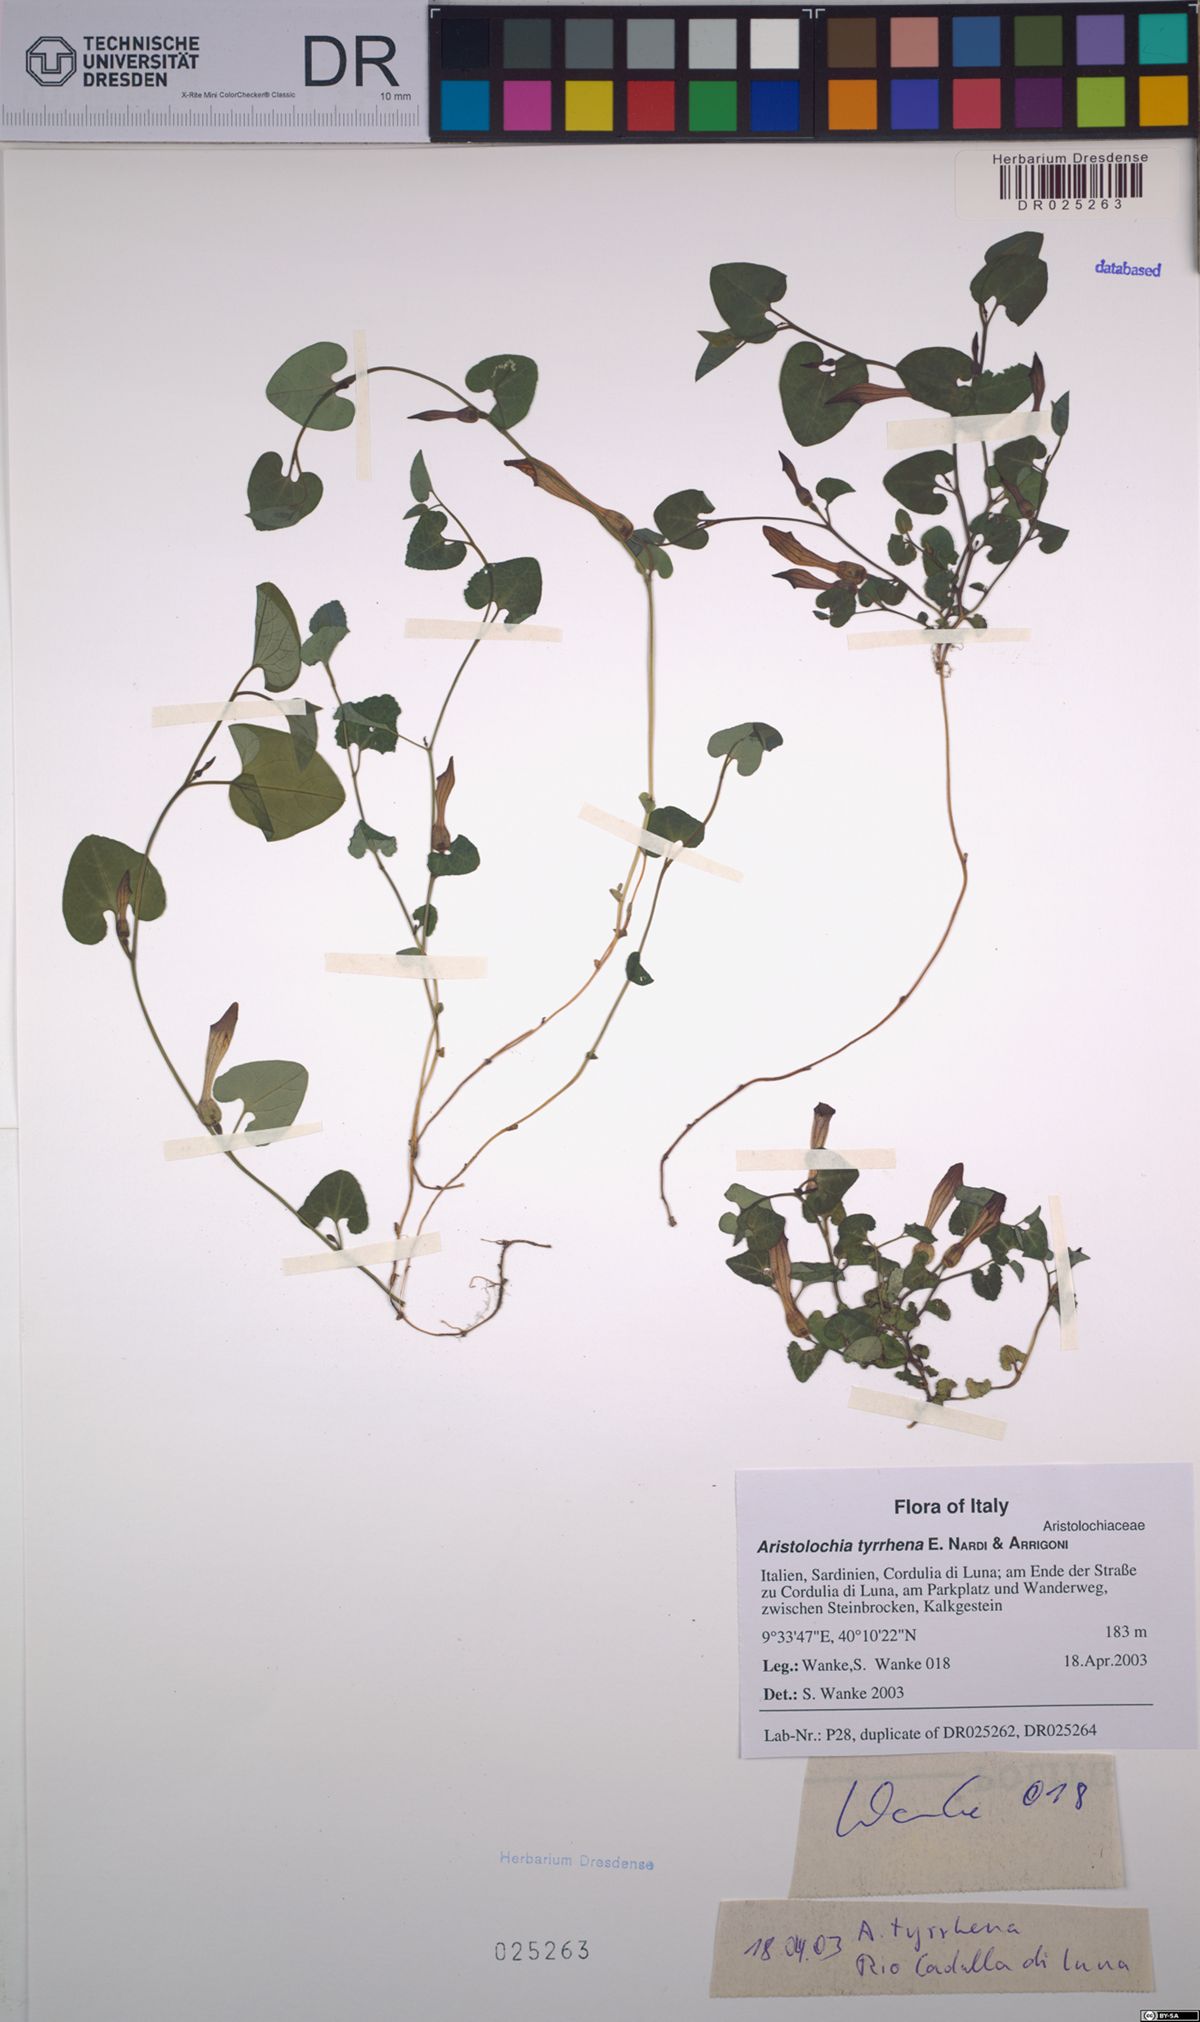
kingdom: Plantae
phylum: Tracheophyta
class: Magnoliopsida
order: Piperales
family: Aristolochiaceae
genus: Aristolochia
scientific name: Aristolochia tyrrhena
